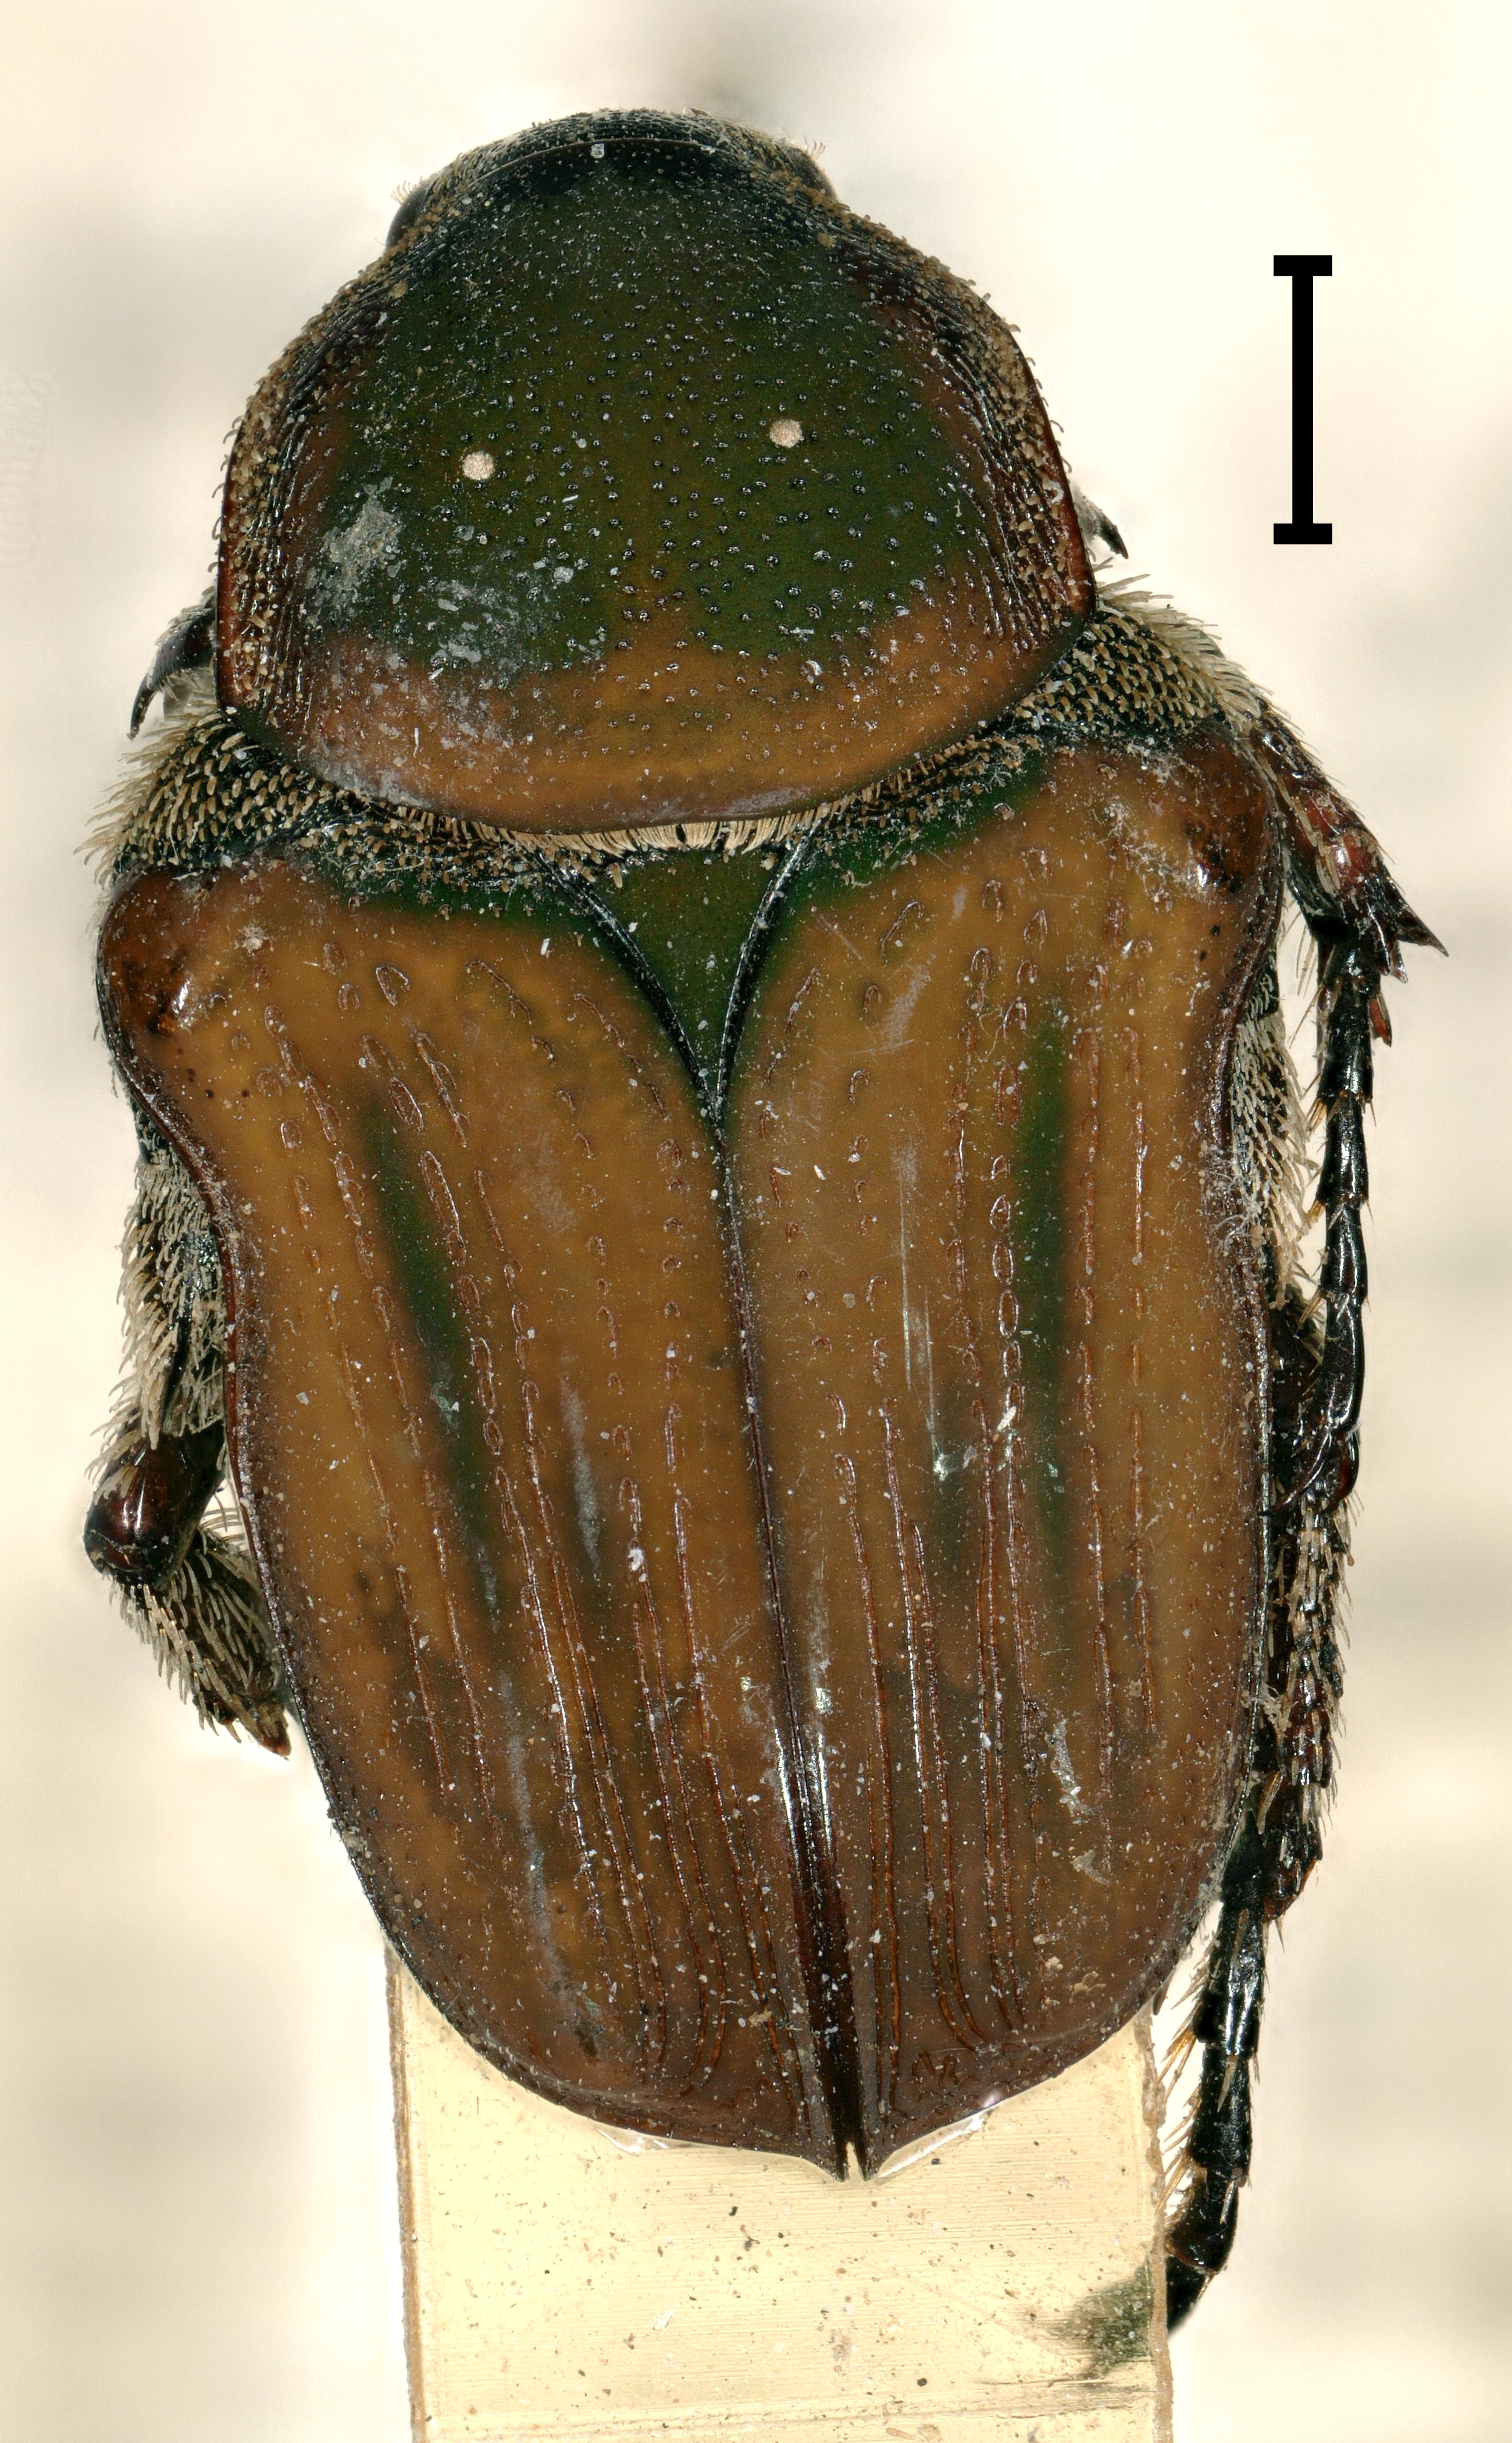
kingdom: Animalia
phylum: Arthropoda
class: Insecta
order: Coleoptera
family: Scarabaeidae
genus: Amaurina
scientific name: Amaurina vittipennis
